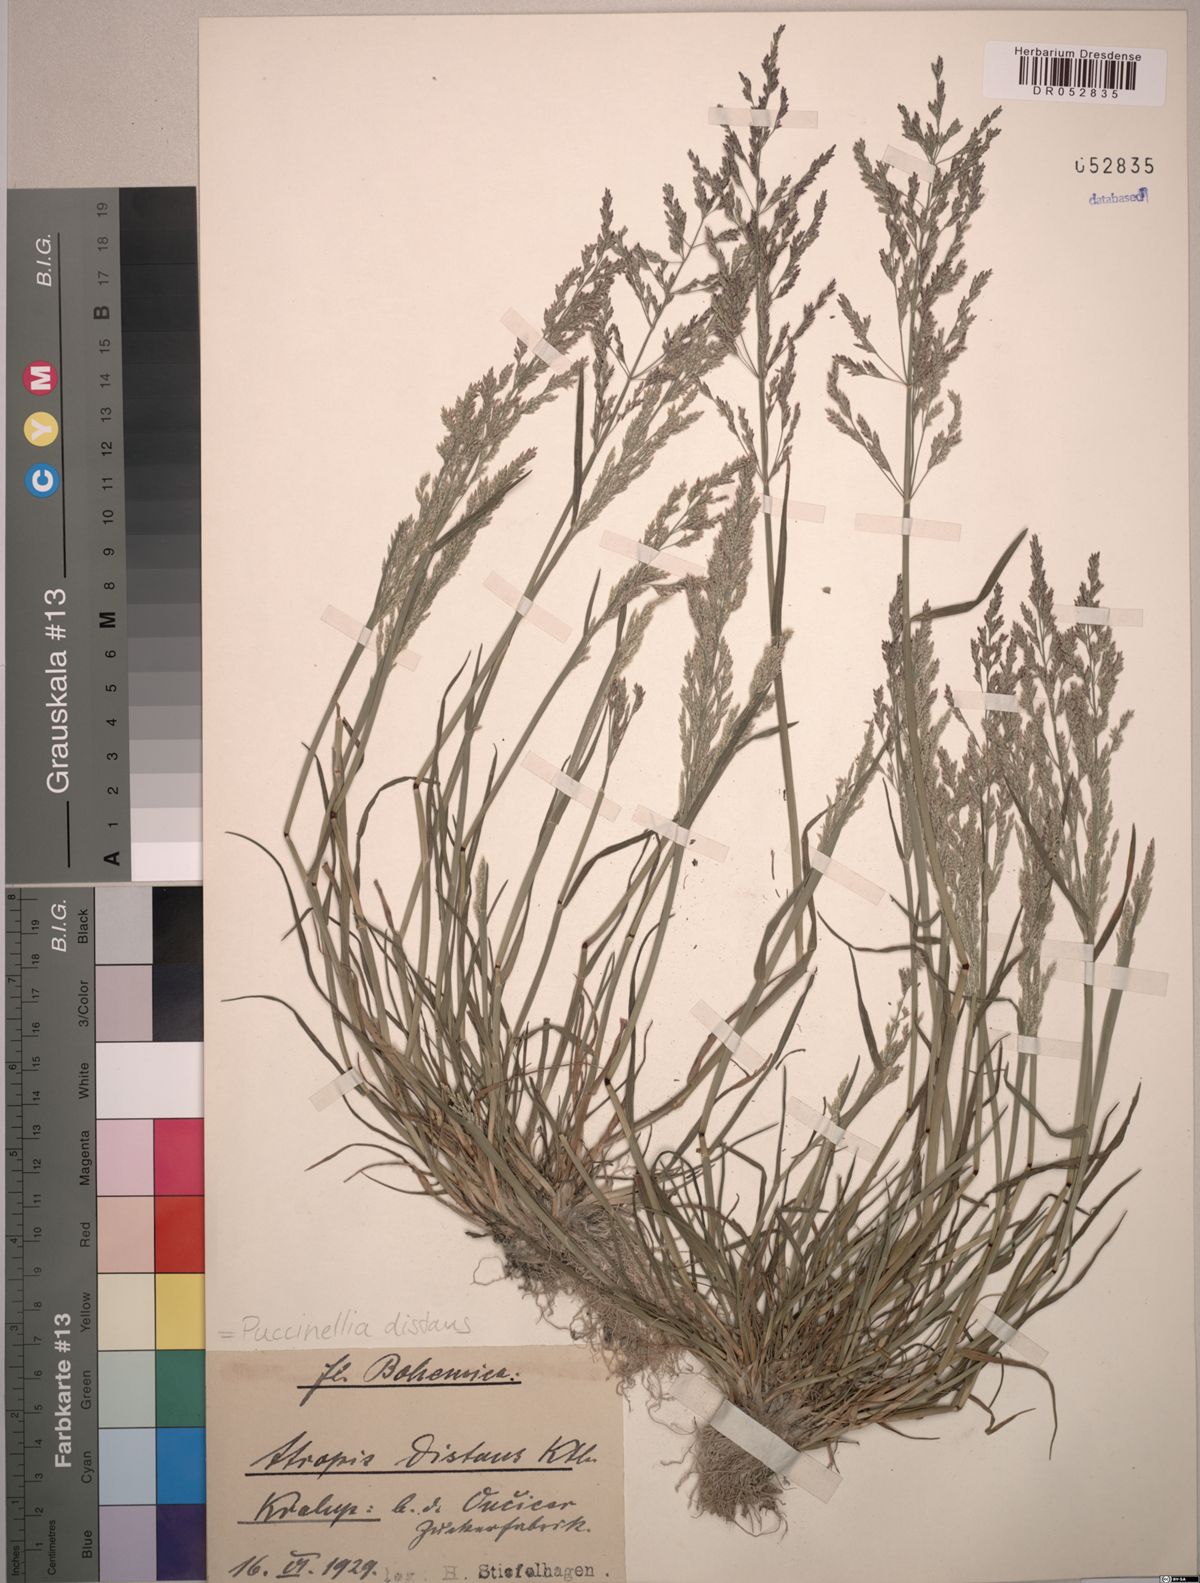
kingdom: Plantae
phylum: Tracheophyta
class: Liliopsida
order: Poales
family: Poaceae
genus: Puccinellia
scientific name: Puccinellia distans
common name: Weeping alkaligrass
